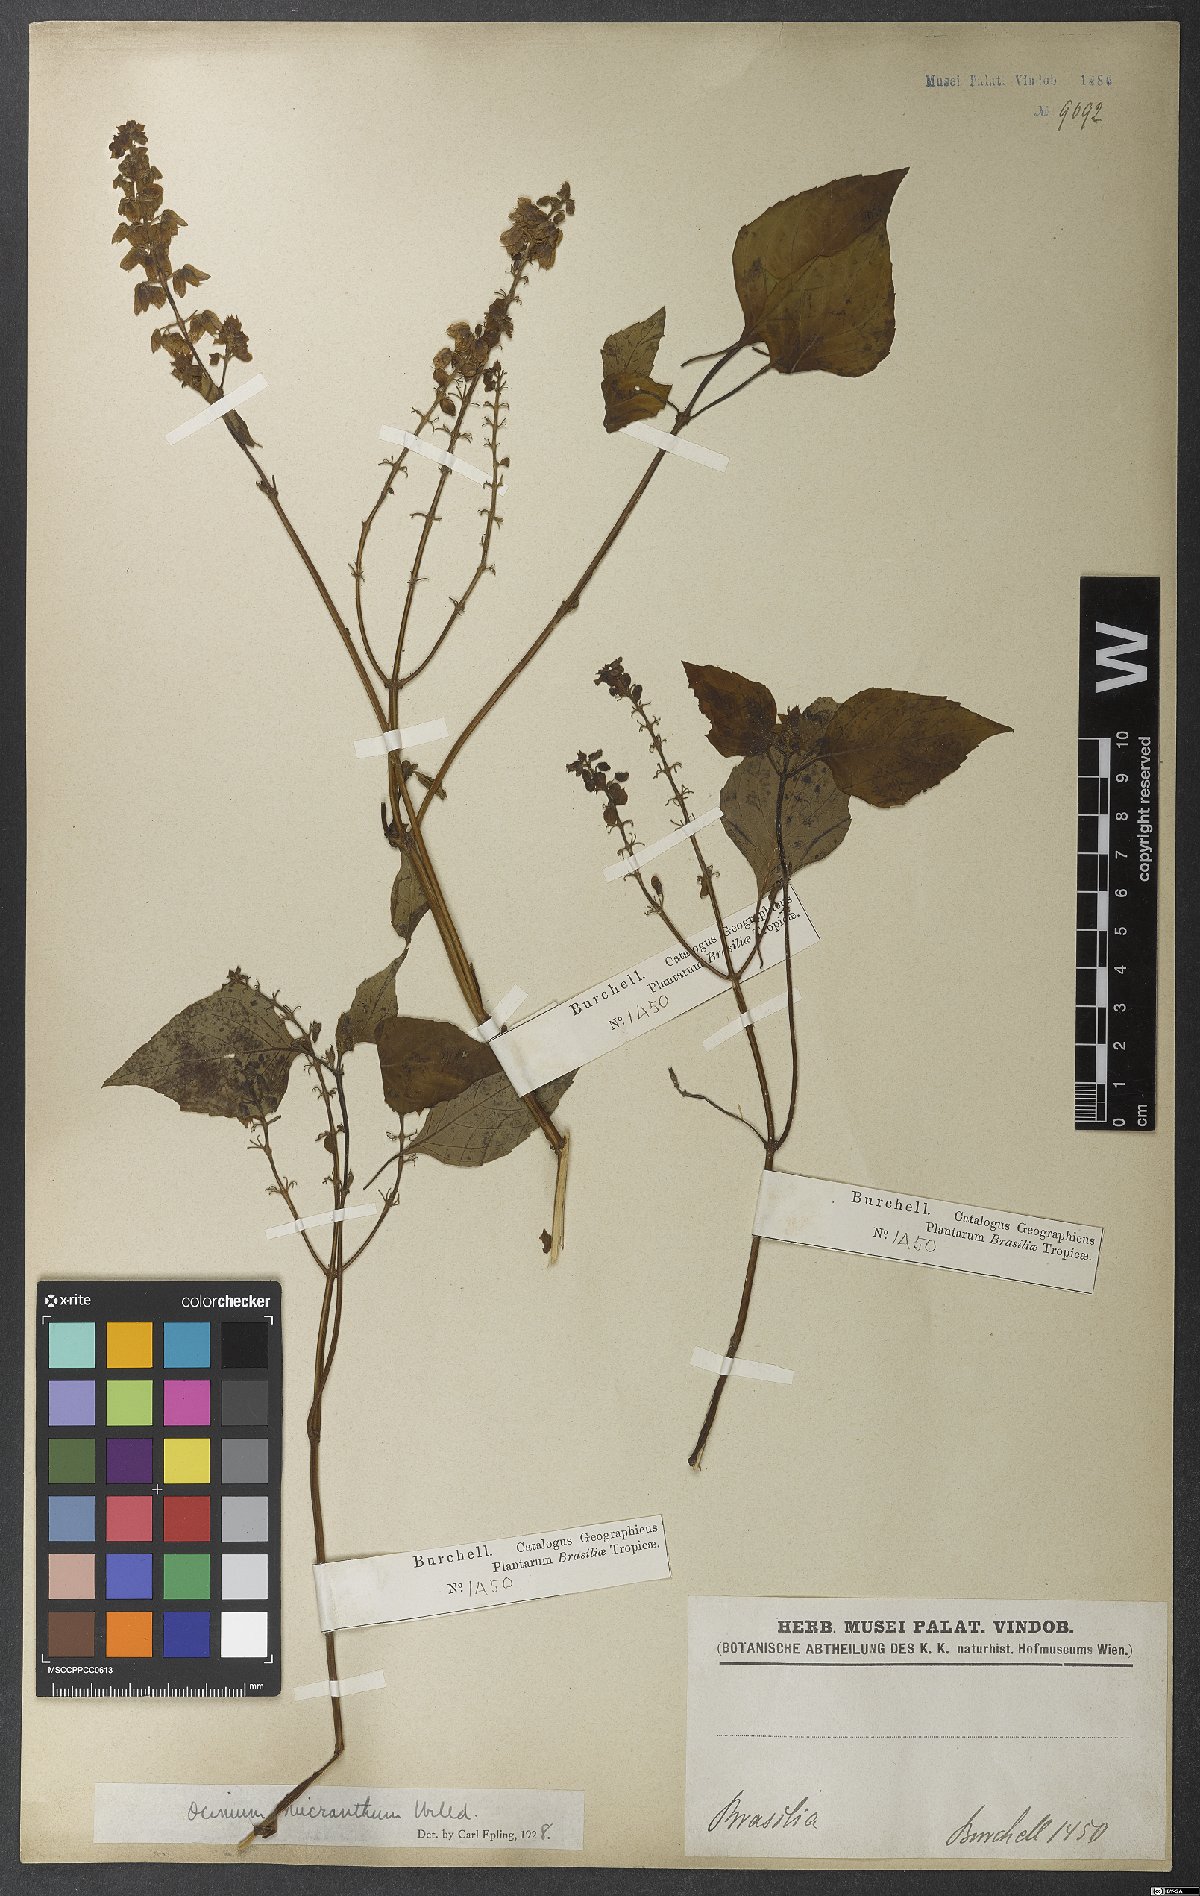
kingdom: Plantae
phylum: Tracheophyta
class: Magnoliopsida
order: Lamiales
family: Lamiaceae
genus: Ocimum
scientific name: Ocimum campechianum
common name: Mosquito basil
